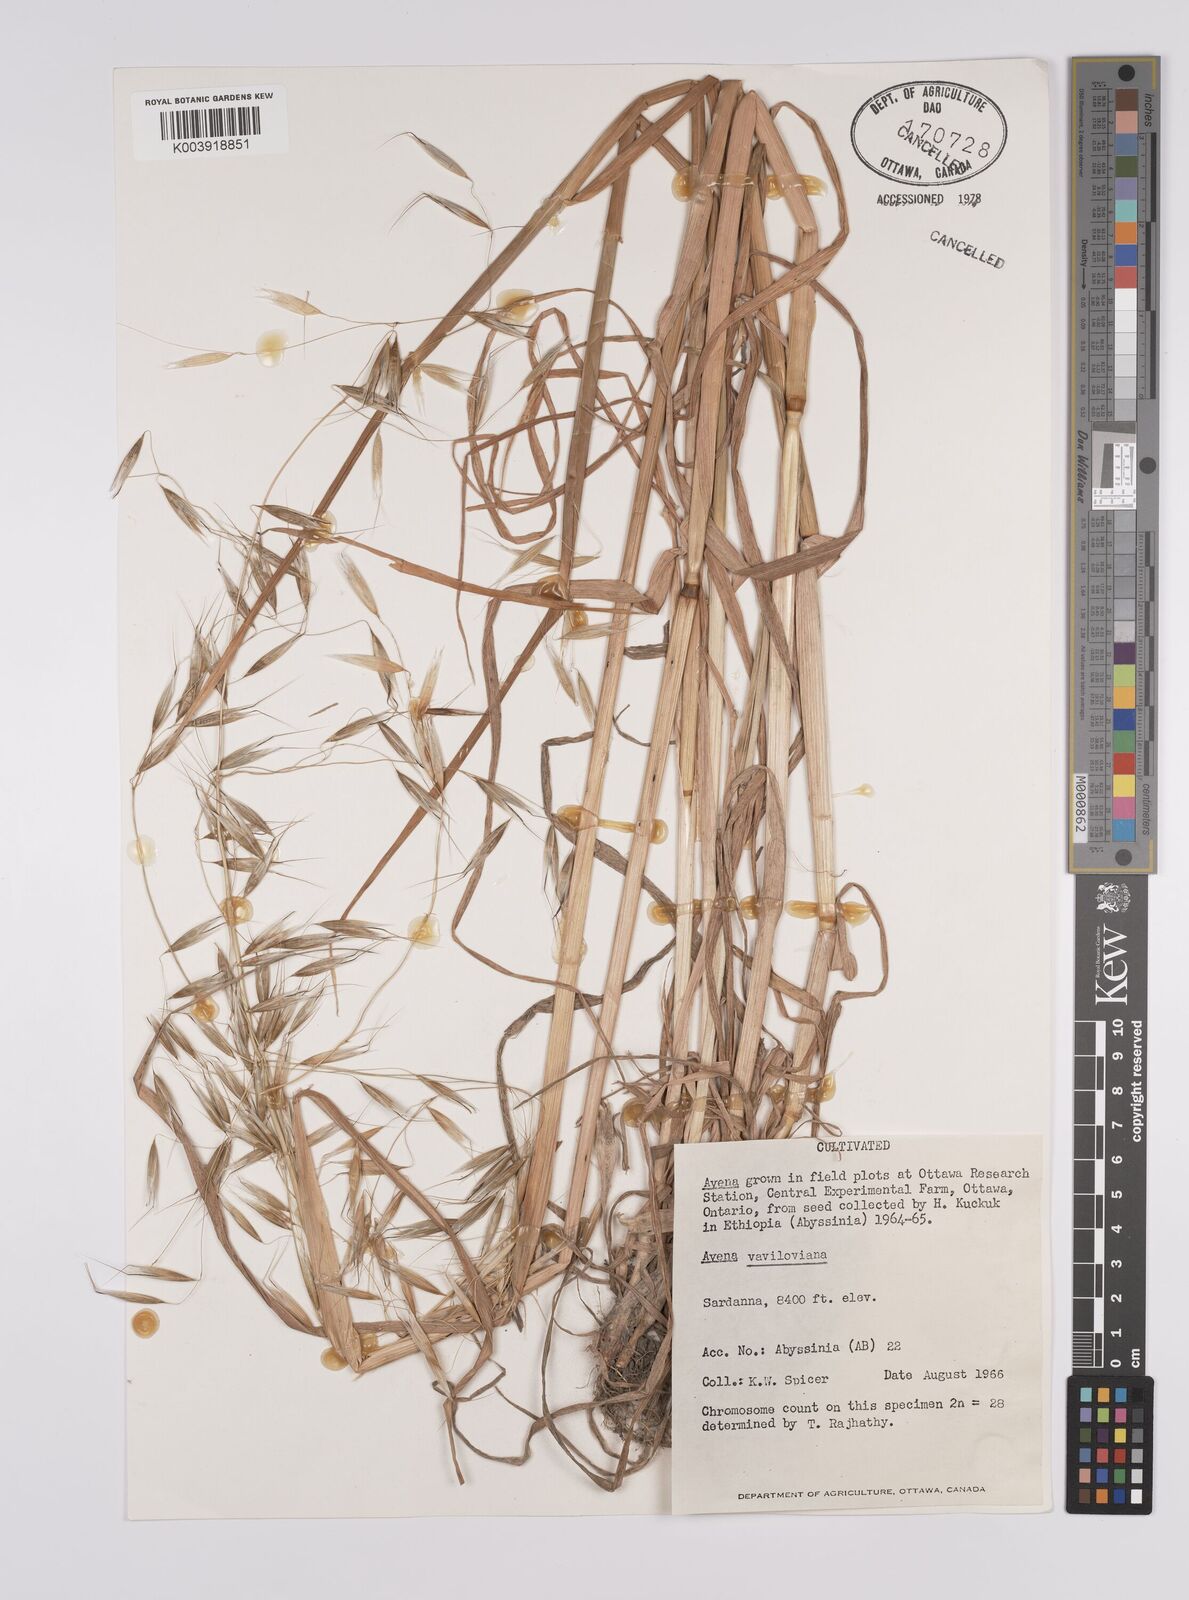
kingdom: Plantae
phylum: Tracheophyta
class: Liliopsida
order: Poales
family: Poaceae
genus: Avena
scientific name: Avena vaviloviana
